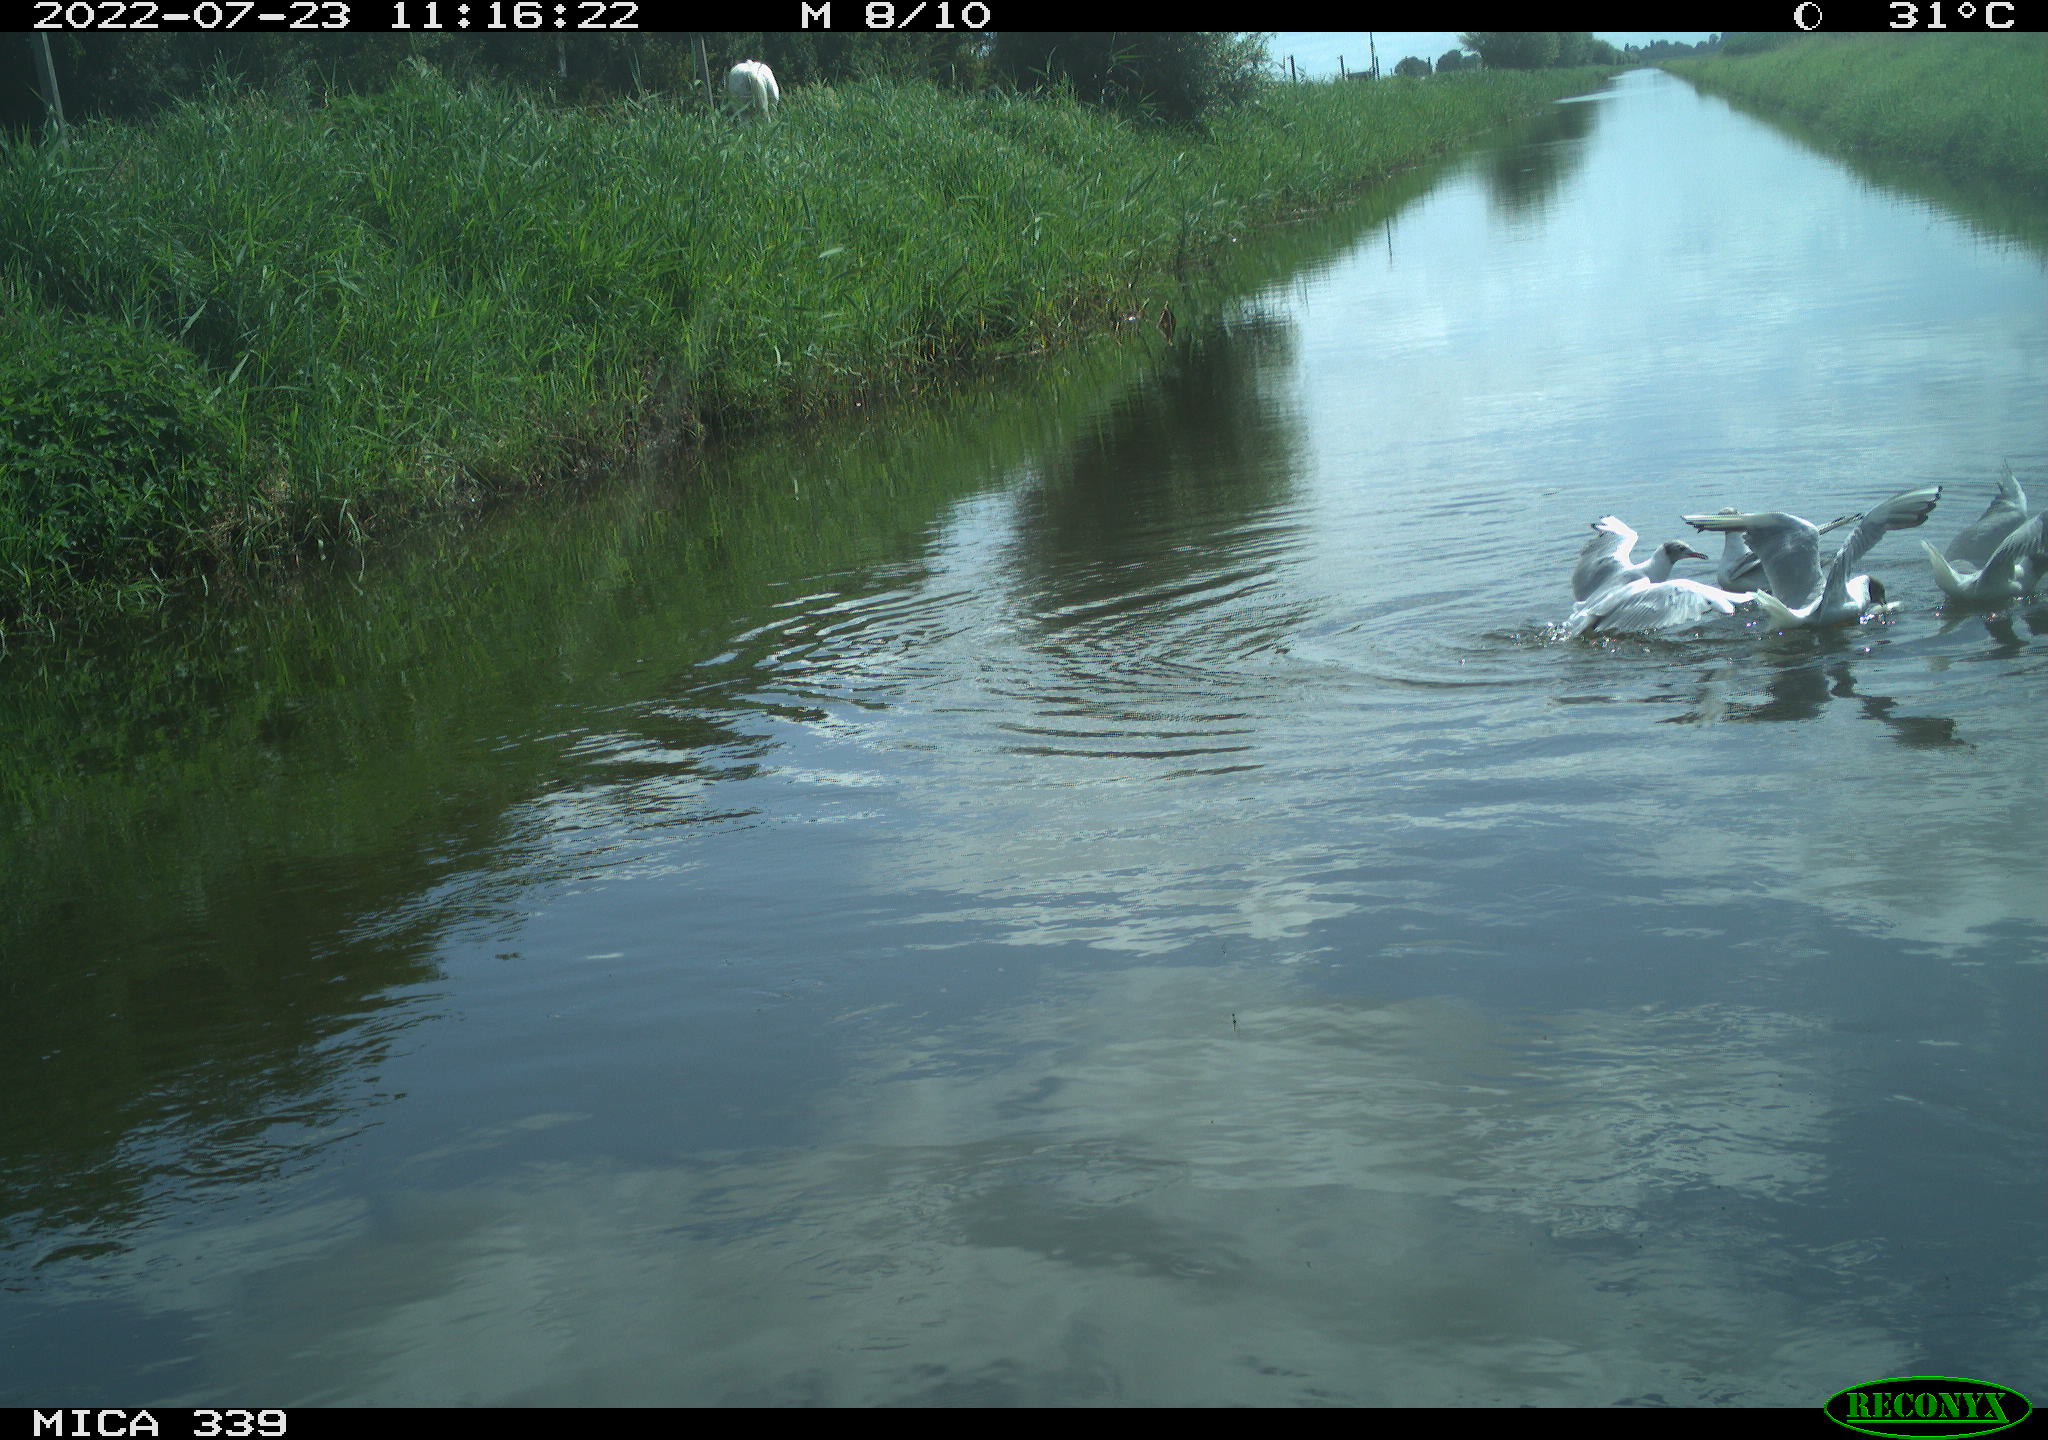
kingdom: Animalia
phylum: Chordata
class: Aves
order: Charadriiformes
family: Laridae
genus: Chroicocephalus
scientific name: Chroicocephalus ridibundus
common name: Black-headed gull
